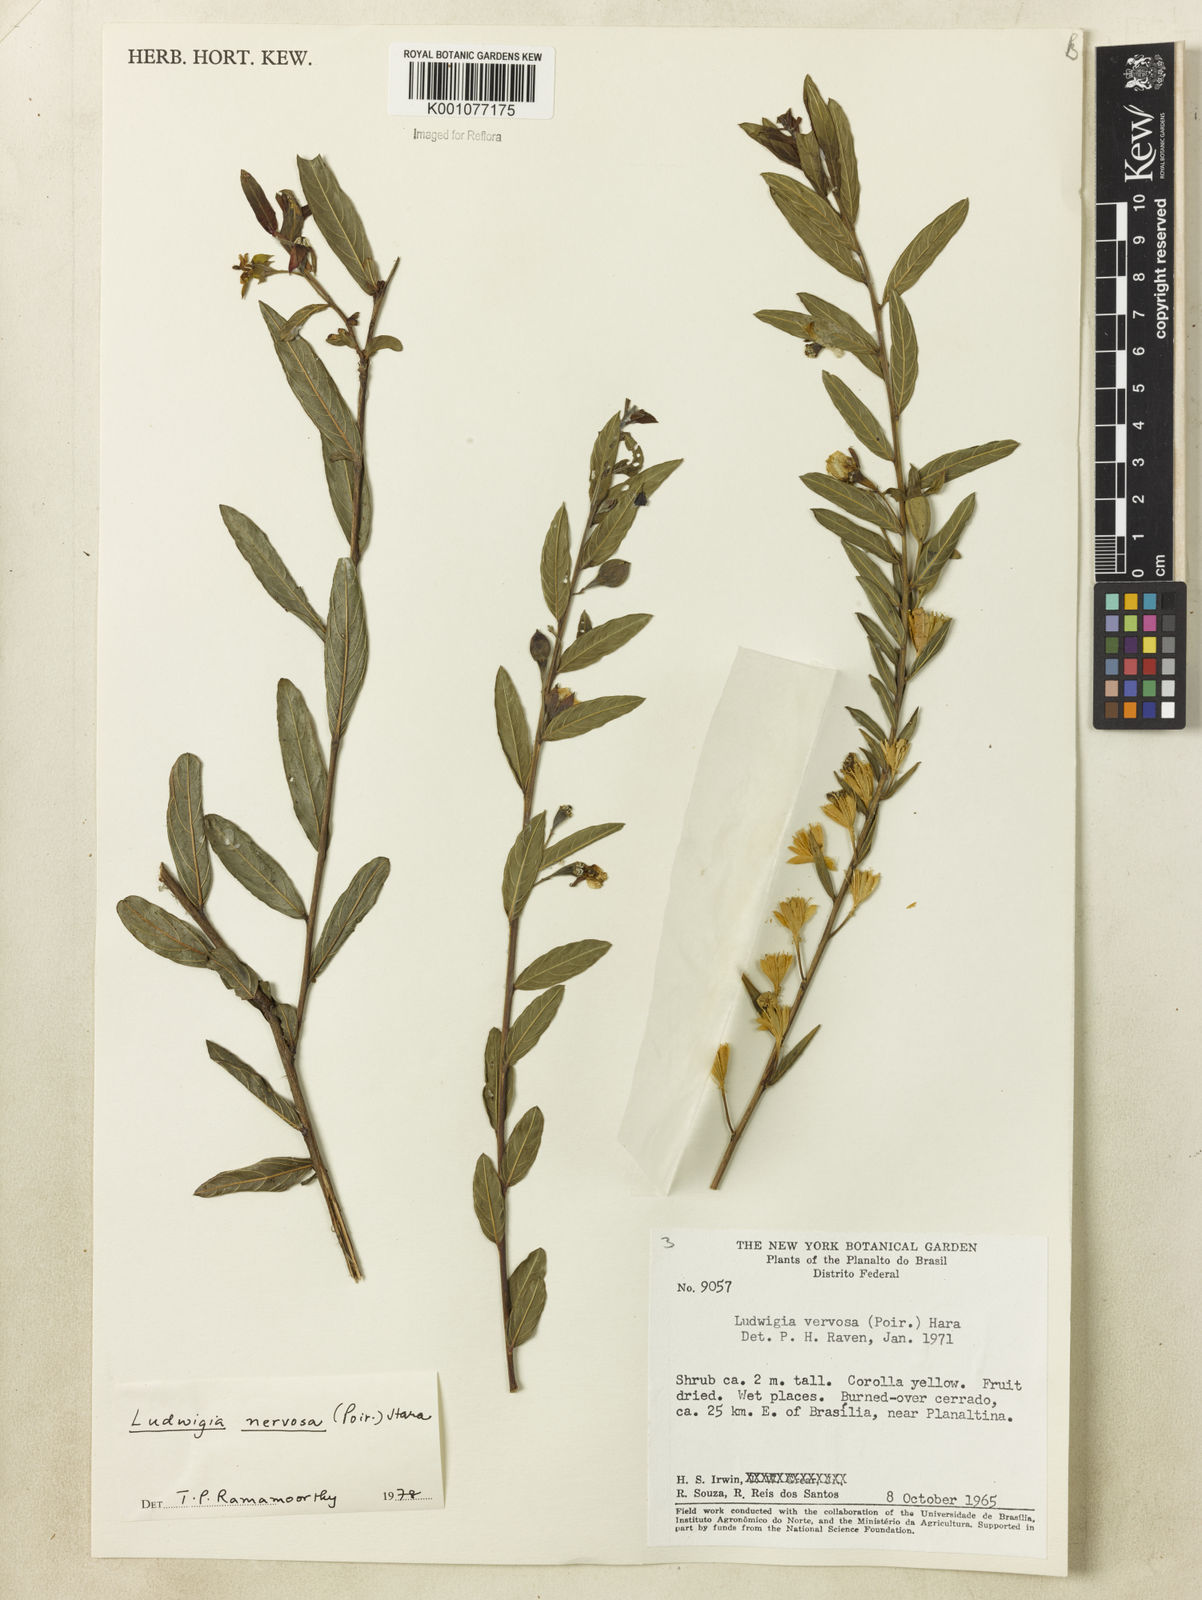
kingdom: Plantae
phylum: Tracheophyta
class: Magnoliopsida
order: Myrtales
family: Onagraceae
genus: Ludwigia
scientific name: Ludwigia nervosa
